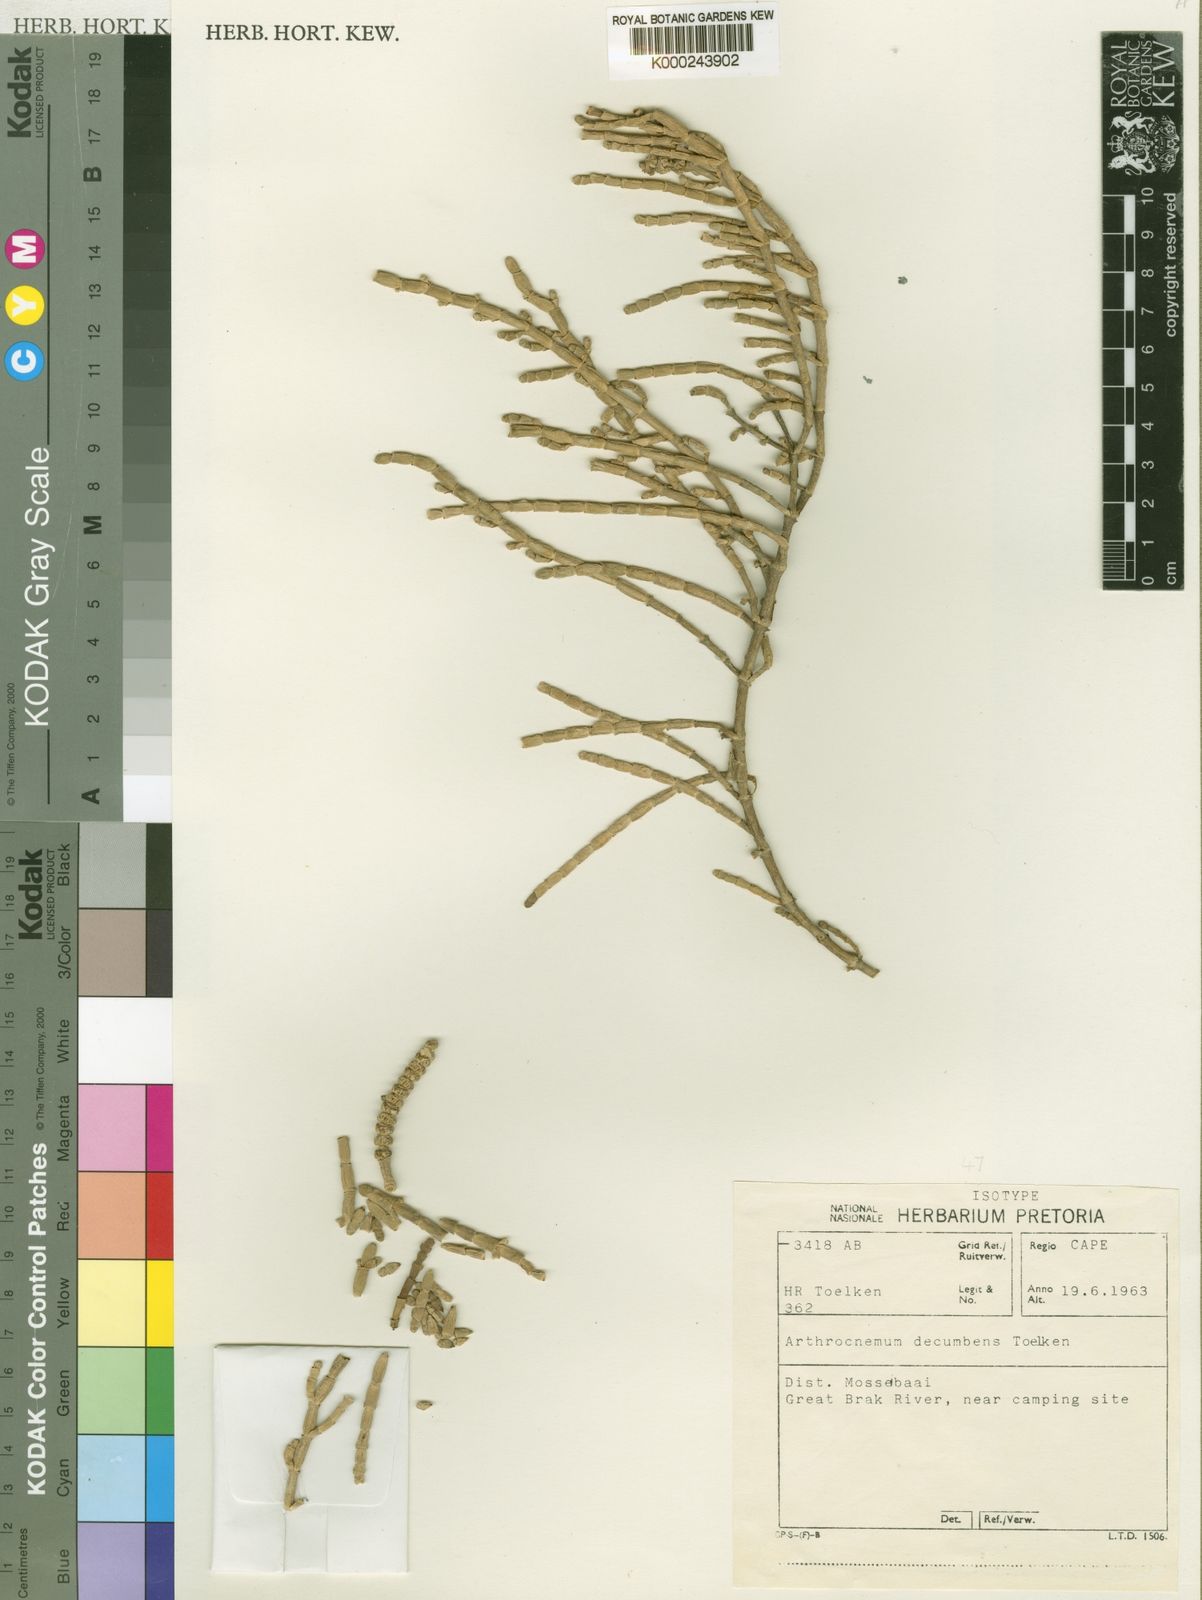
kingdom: Plantae
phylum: Tracheophyta
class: Magnoliopsida
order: Caryophyllales
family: Amaranthaceae
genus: Salicornia
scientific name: Salicornia decumbens
